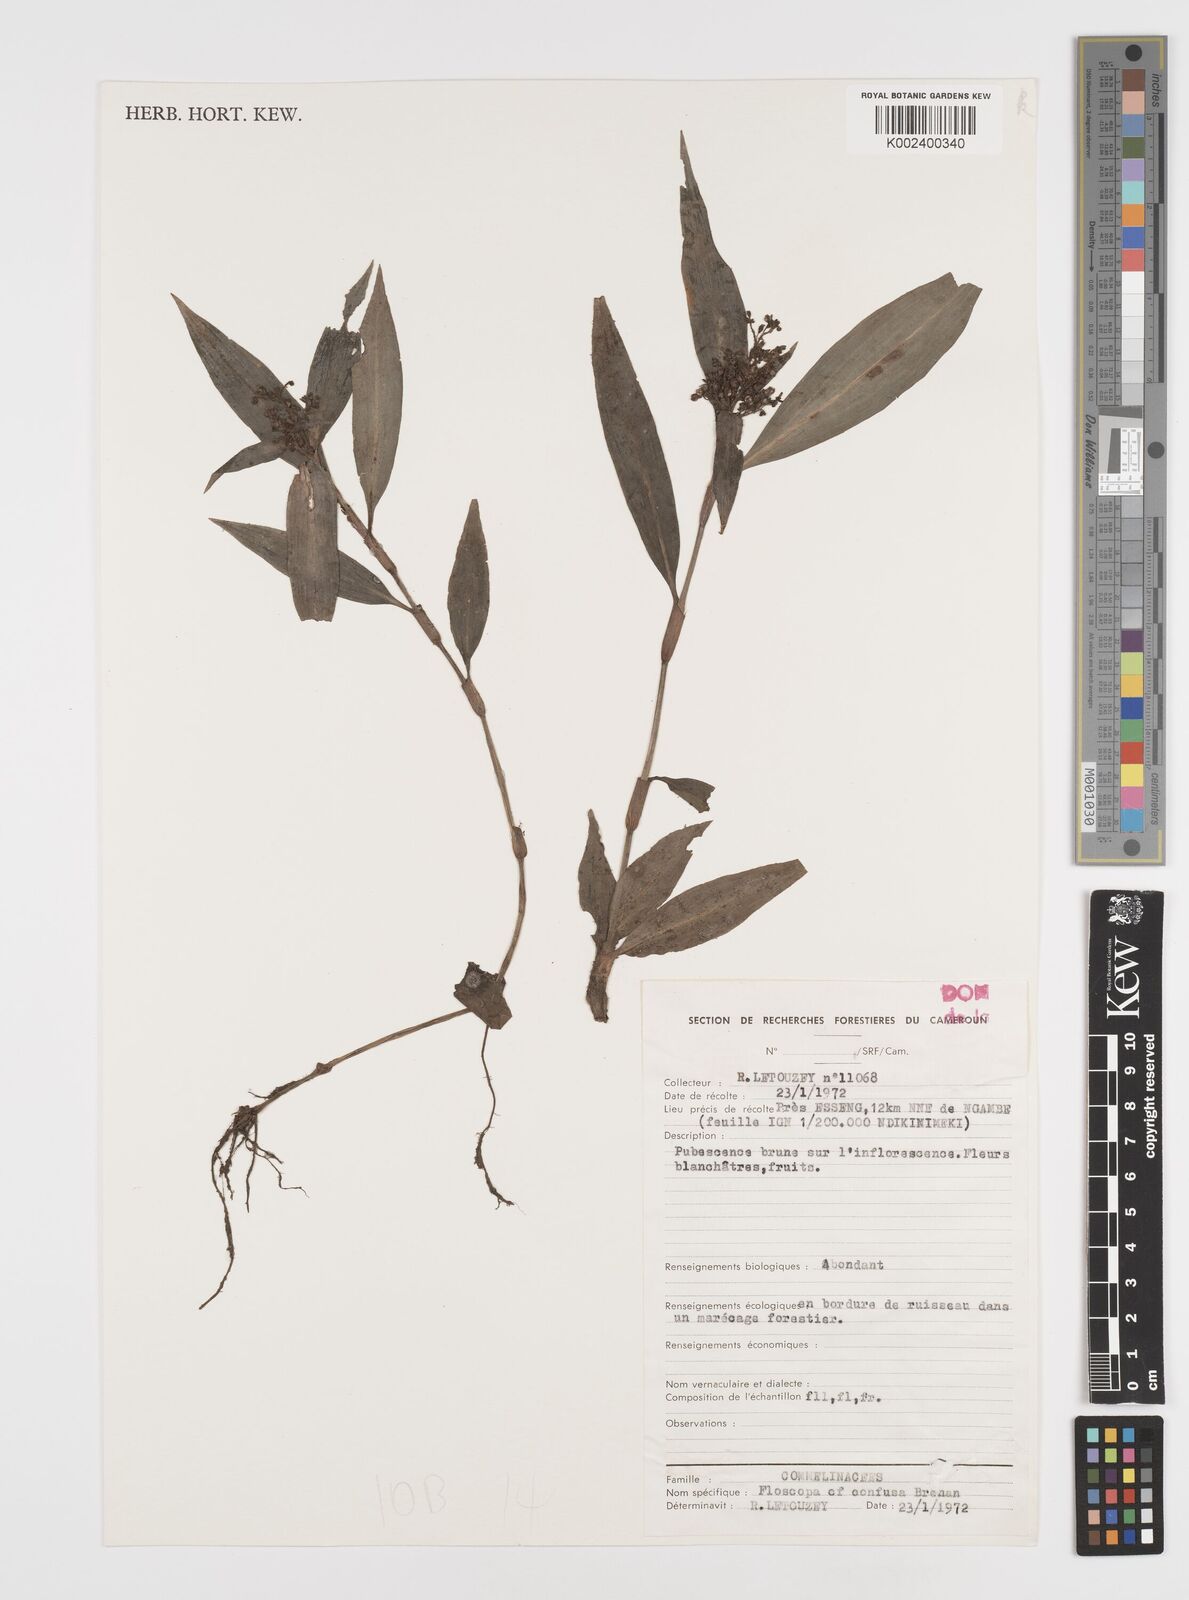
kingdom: Plantae
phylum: Tracheophyta
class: Liliopsida
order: Commelinales
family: Commelinaceae
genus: Floscopa
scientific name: Floscopa confusa
